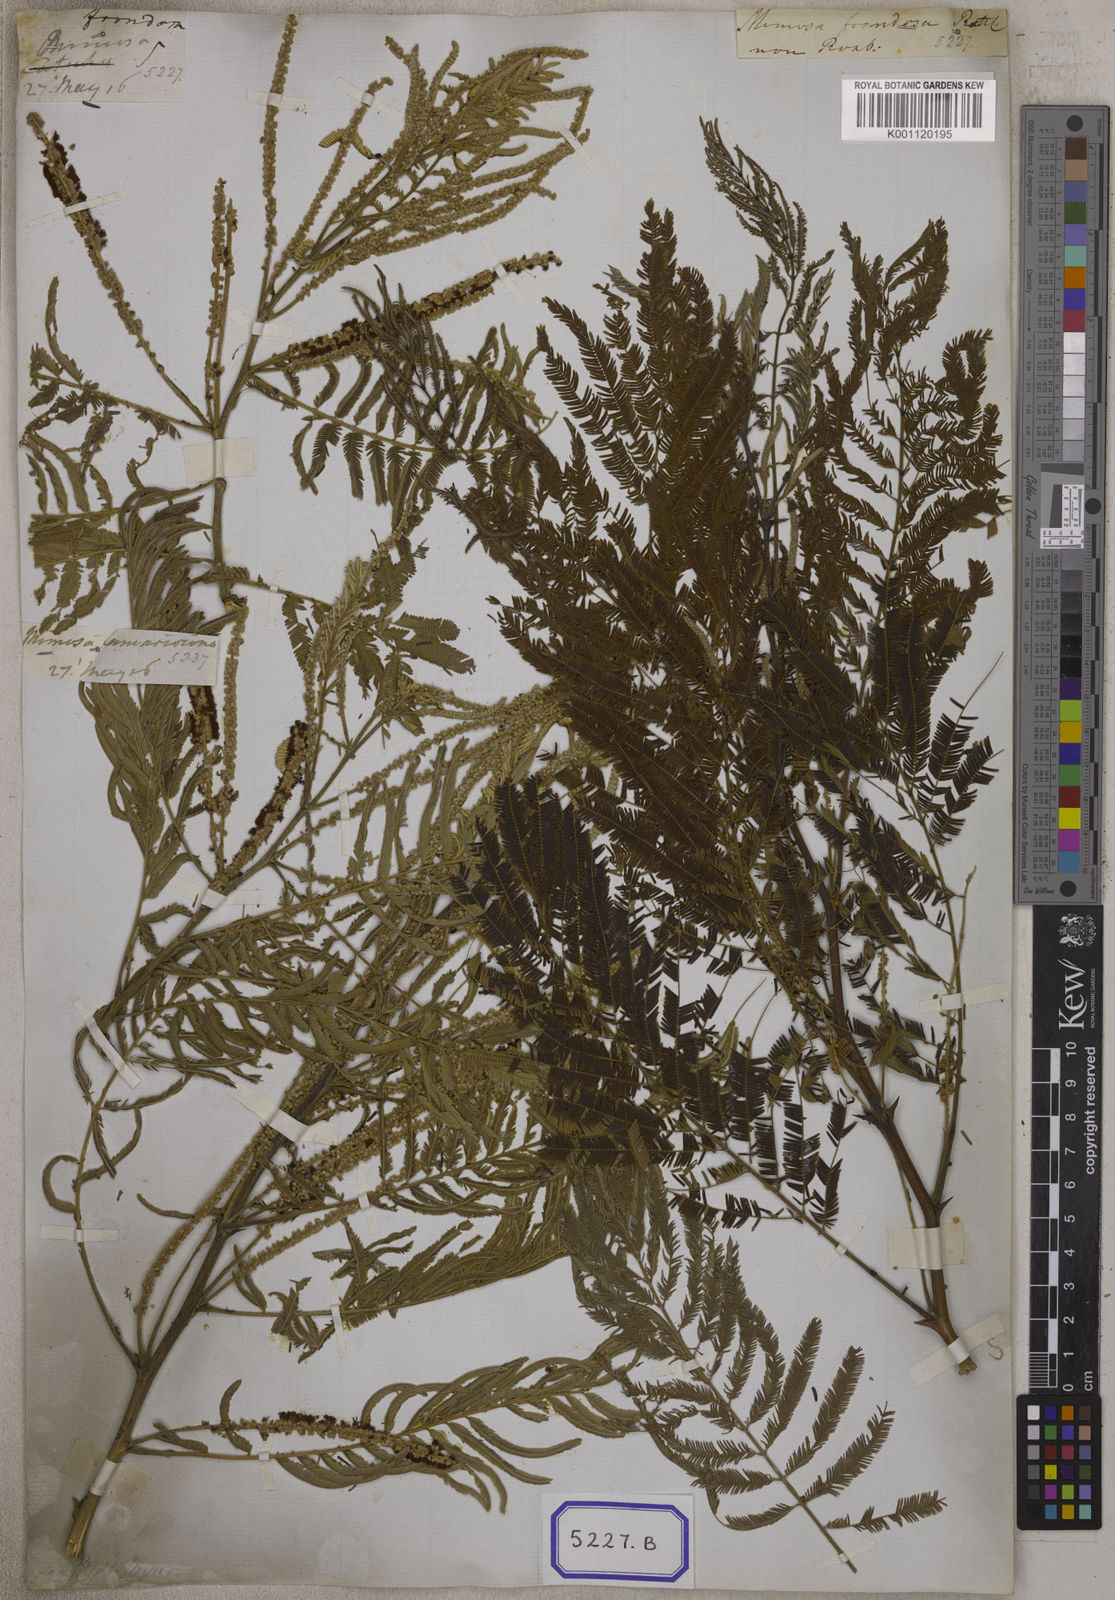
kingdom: Plantae
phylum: Tracheophyta
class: Magnoliopsida
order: Fabales
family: Fabaceae
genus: Senegalia
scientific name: Senegalia chundra
